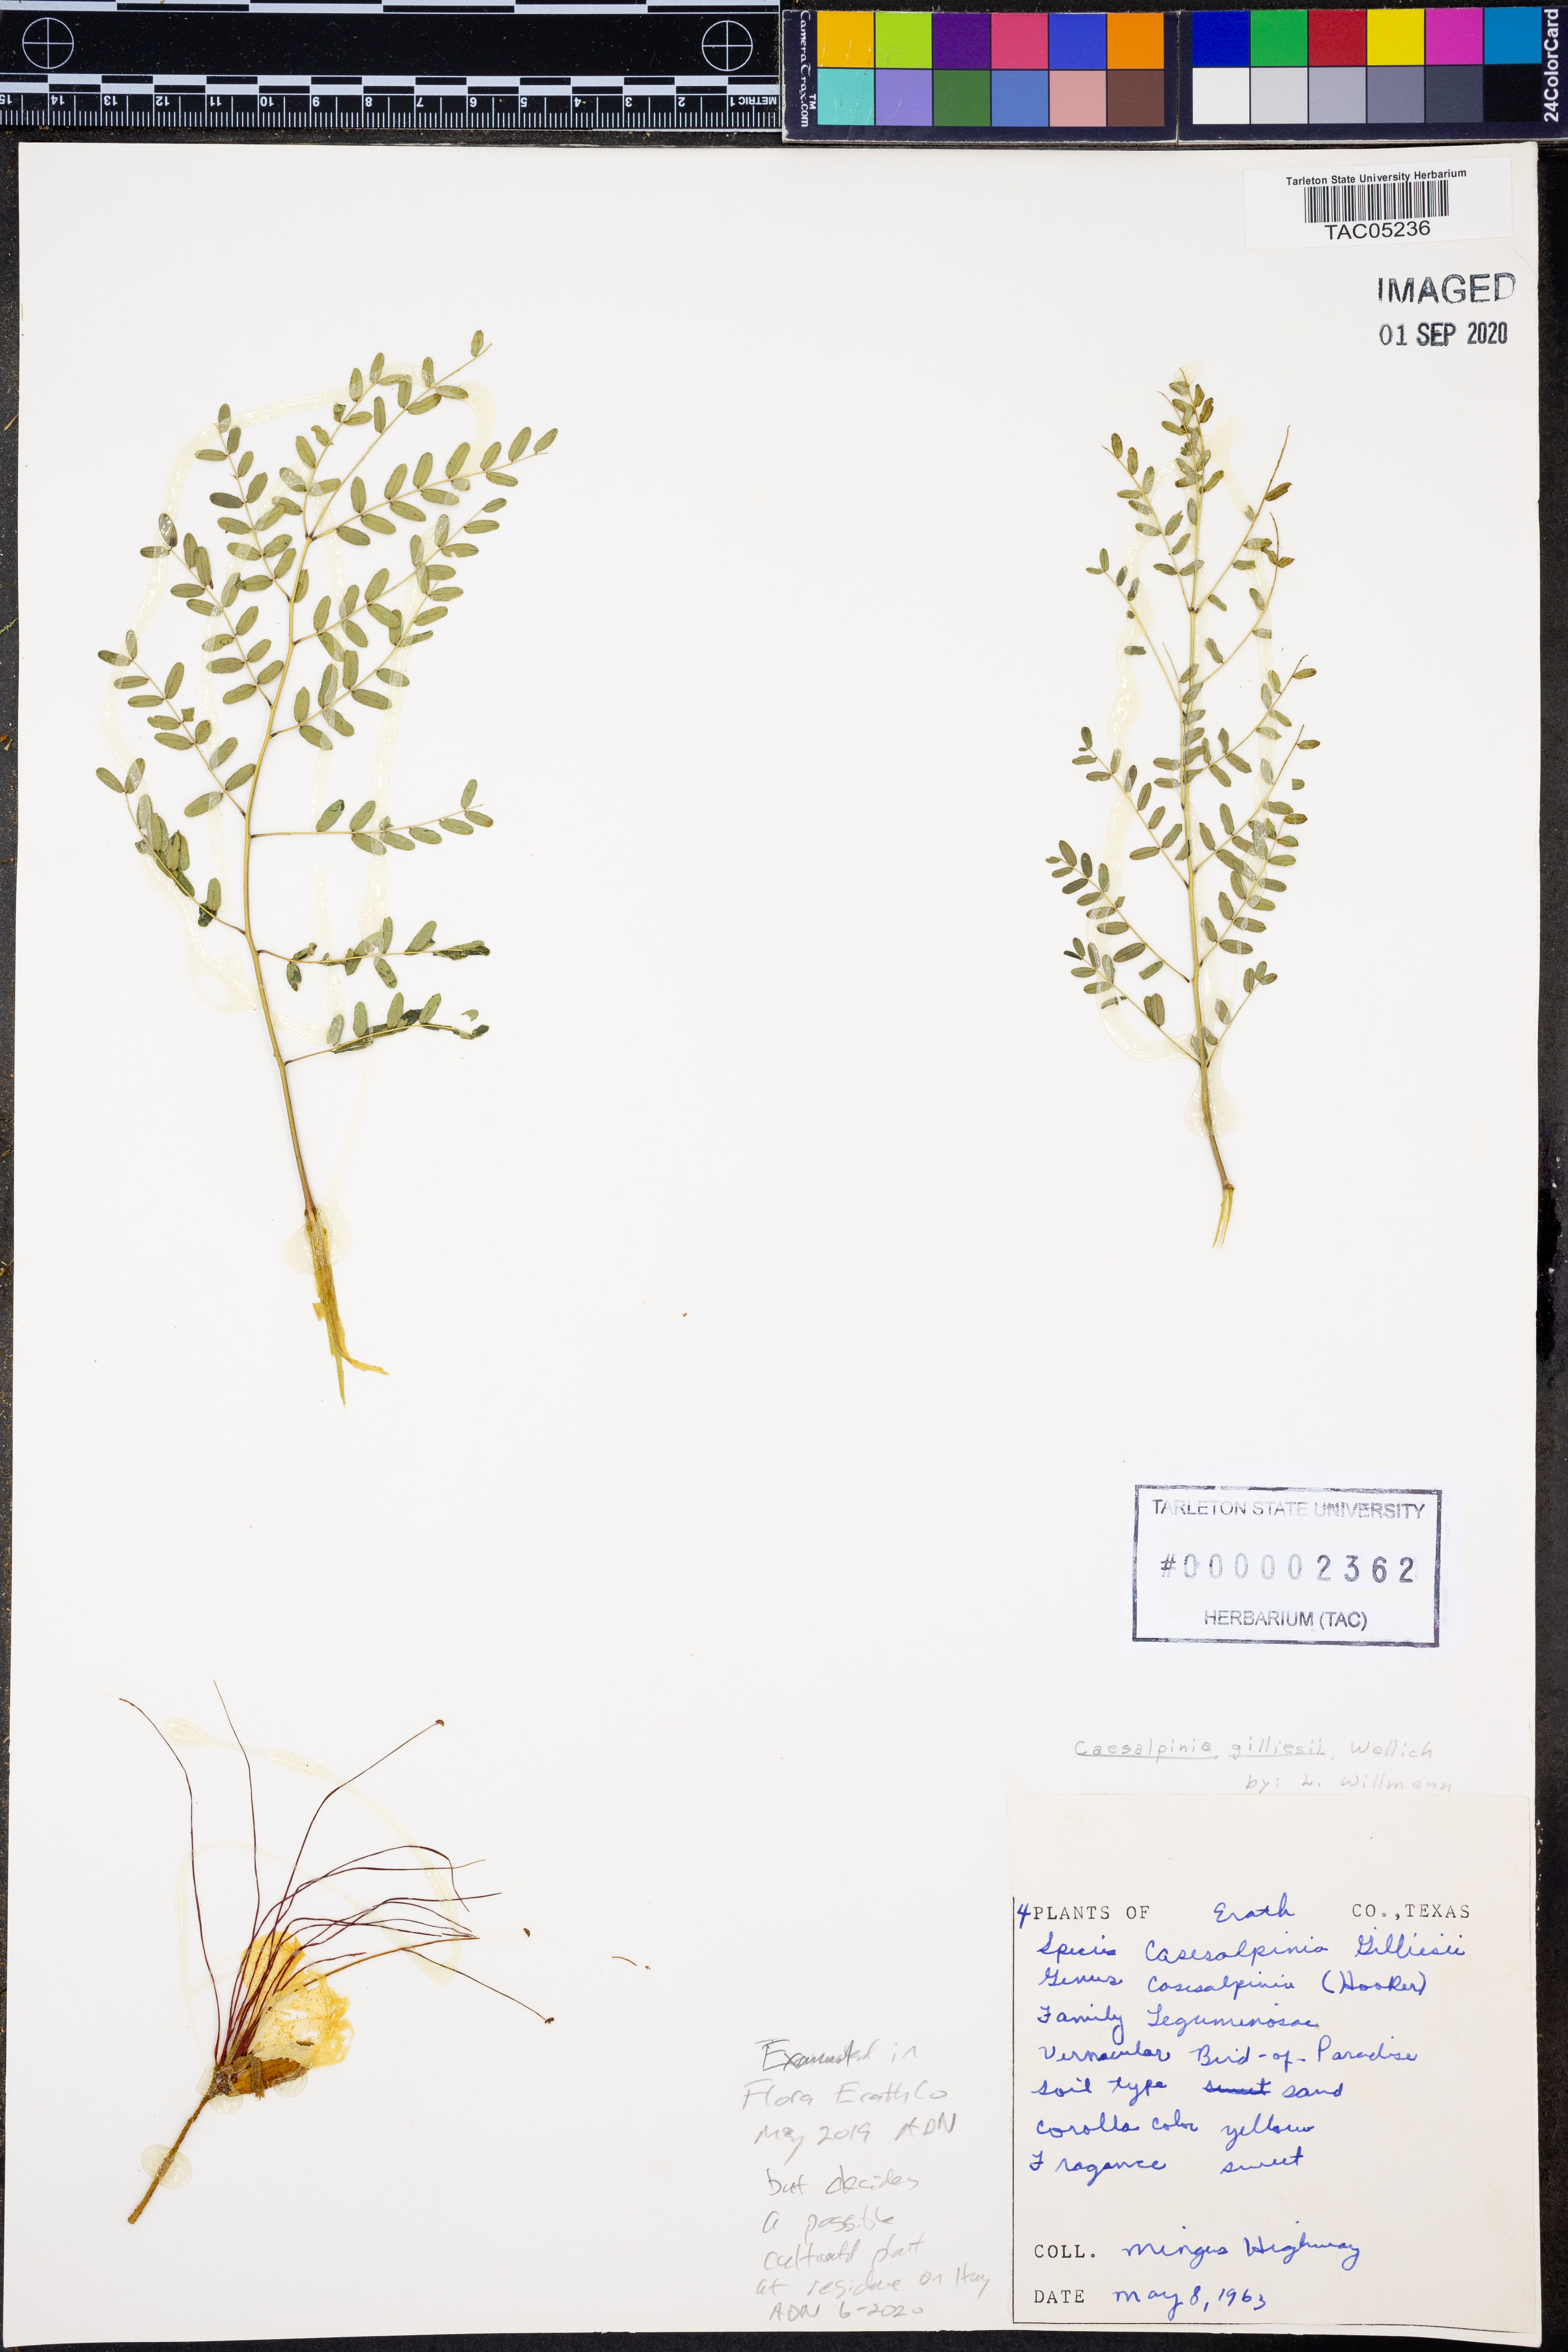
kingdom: Plantae
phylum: Tracheophyta
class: Magnoliopsida
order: Fabales
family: Fabaceae
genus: Erythrostemon
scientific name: Erythrostemon gilliesii
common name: Bird-of-paradise shrub
